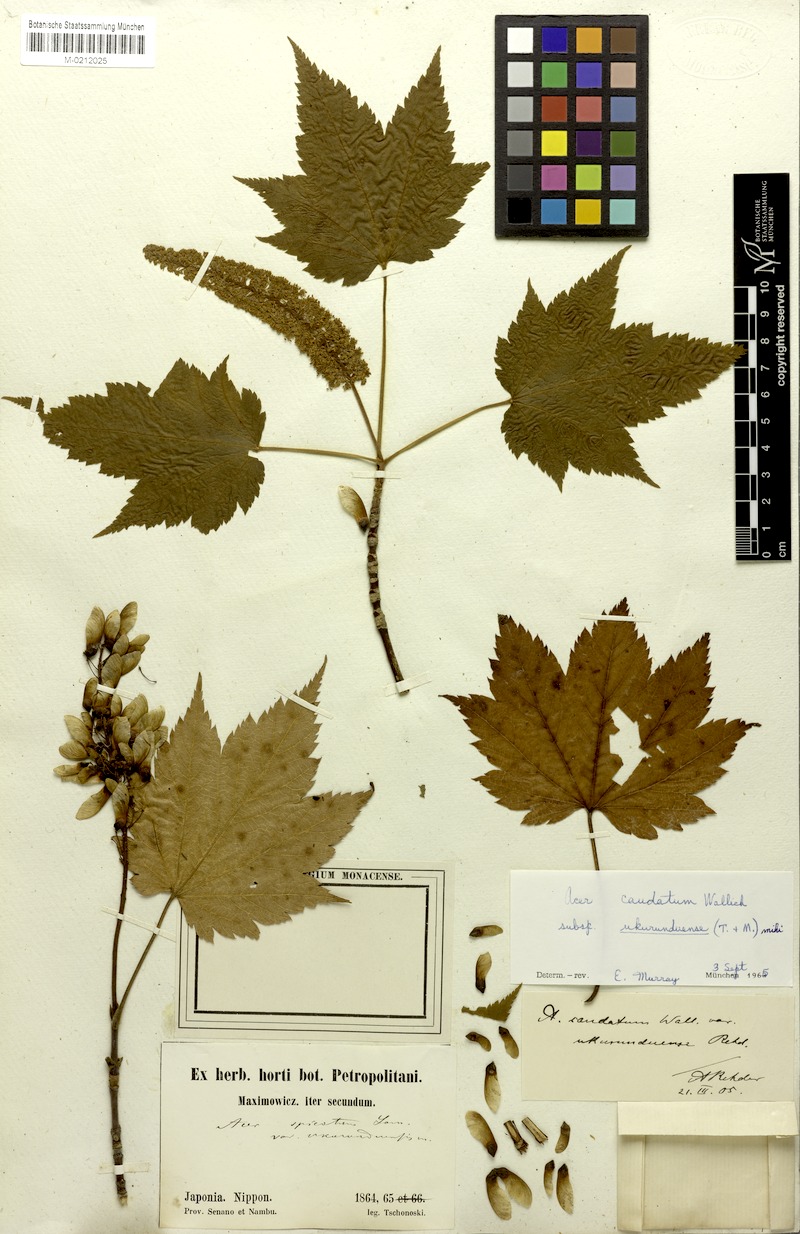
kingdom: Plantae
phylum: Tracheophyta
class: Magnoliopsida
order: Sapindales
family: Sapindaceae
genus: Acer
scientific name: Acer caudatum
